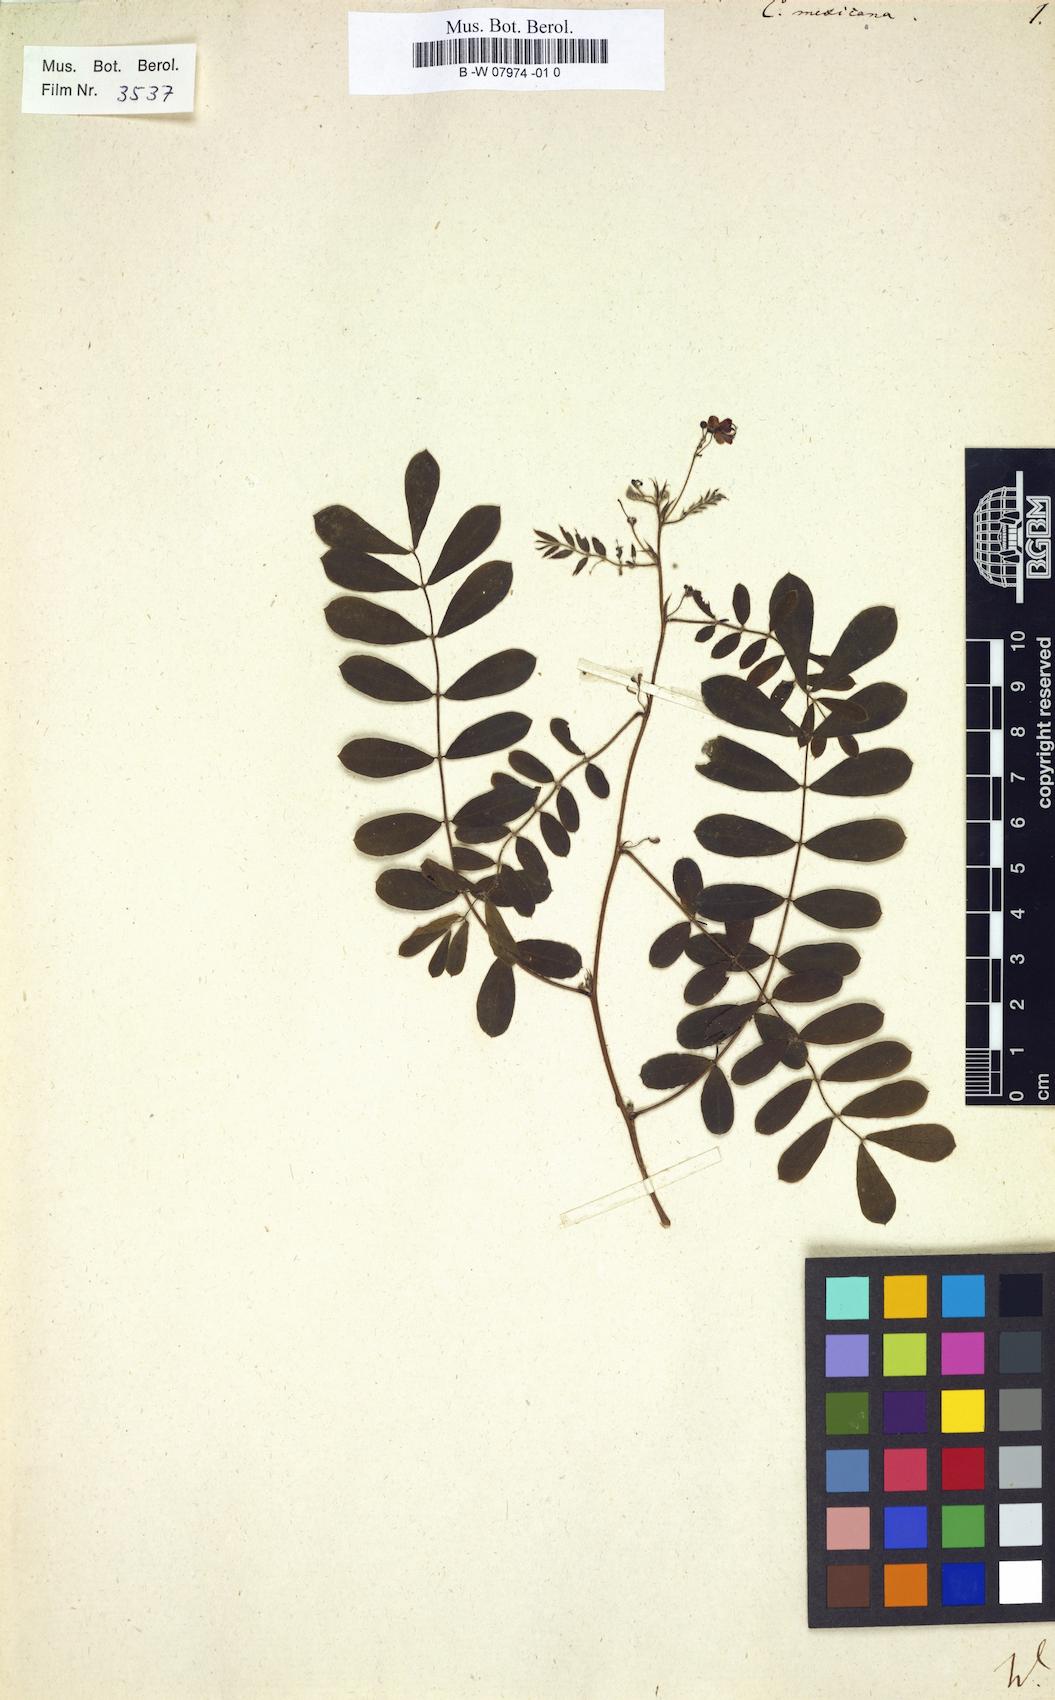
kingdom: Plantae
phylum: Tracheophyta
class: Magnoliopsida
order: Fabales
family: Fabaceae
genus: Senna
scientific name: Senna mexicana
